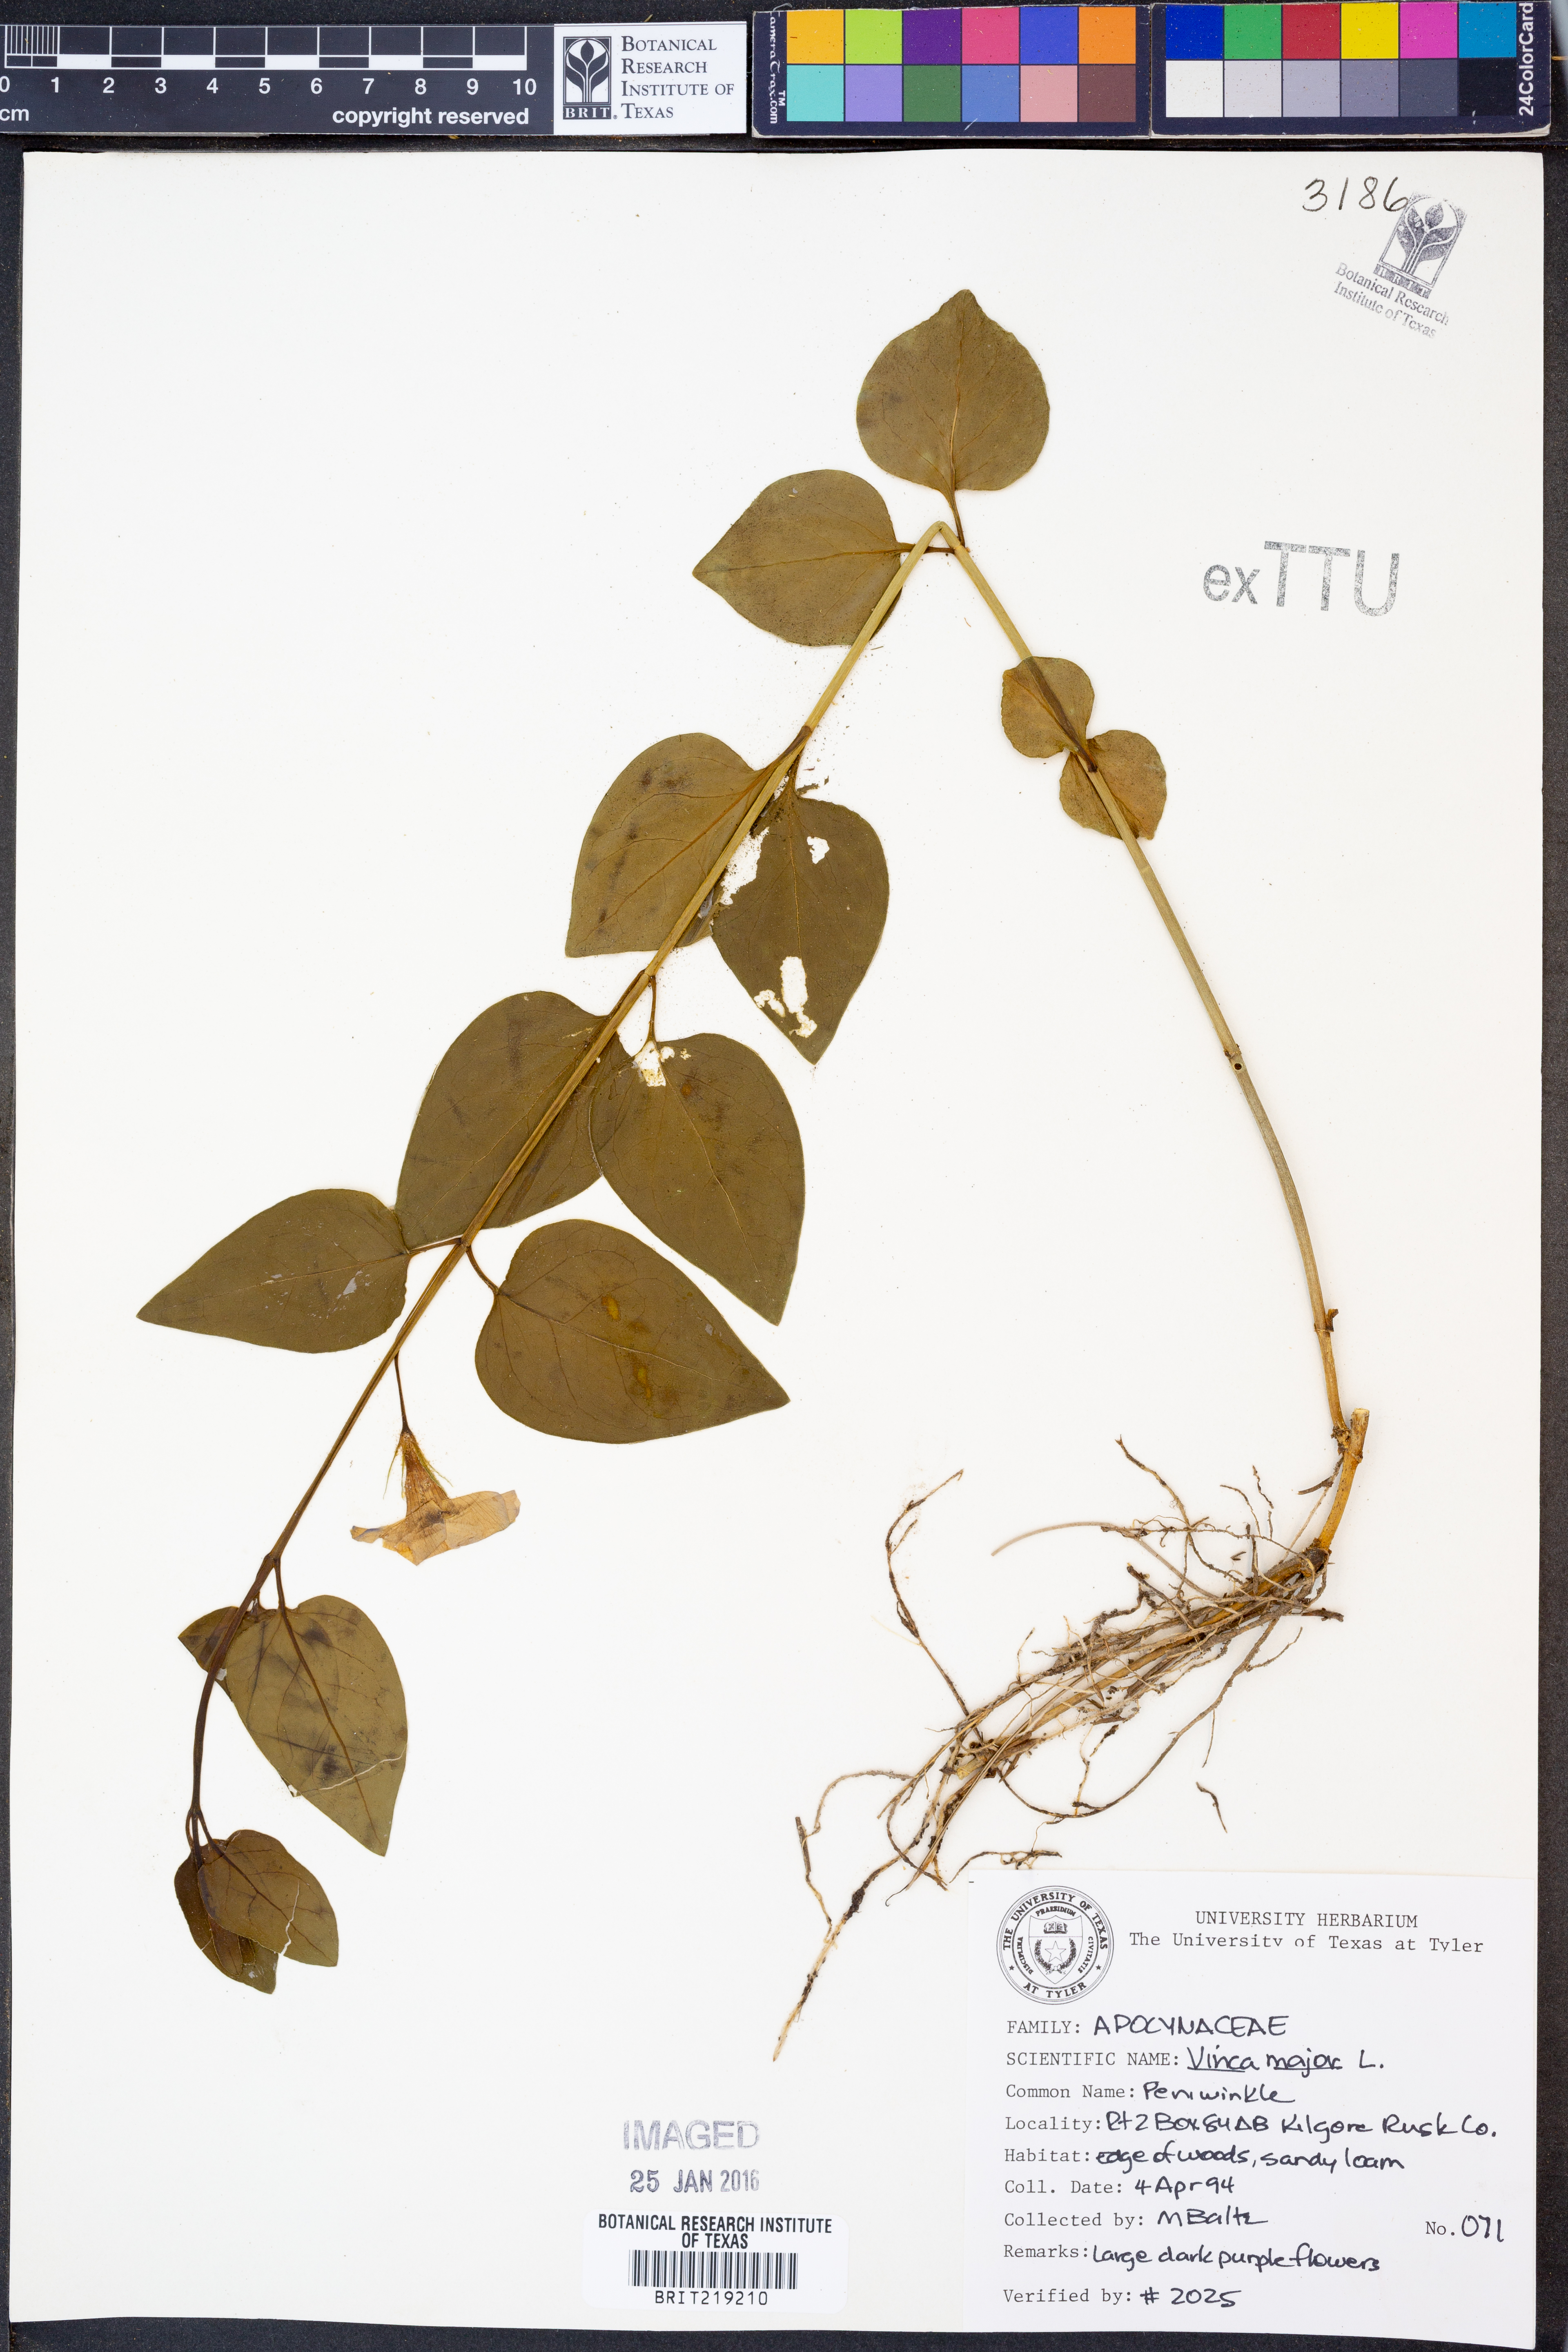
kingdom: Plantae
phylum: Tracheophyta
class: Magnoliopsida
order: Gentianales
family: Apocynaceae
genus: Vinca
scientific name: Vinca major
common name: Greater periwinkle
